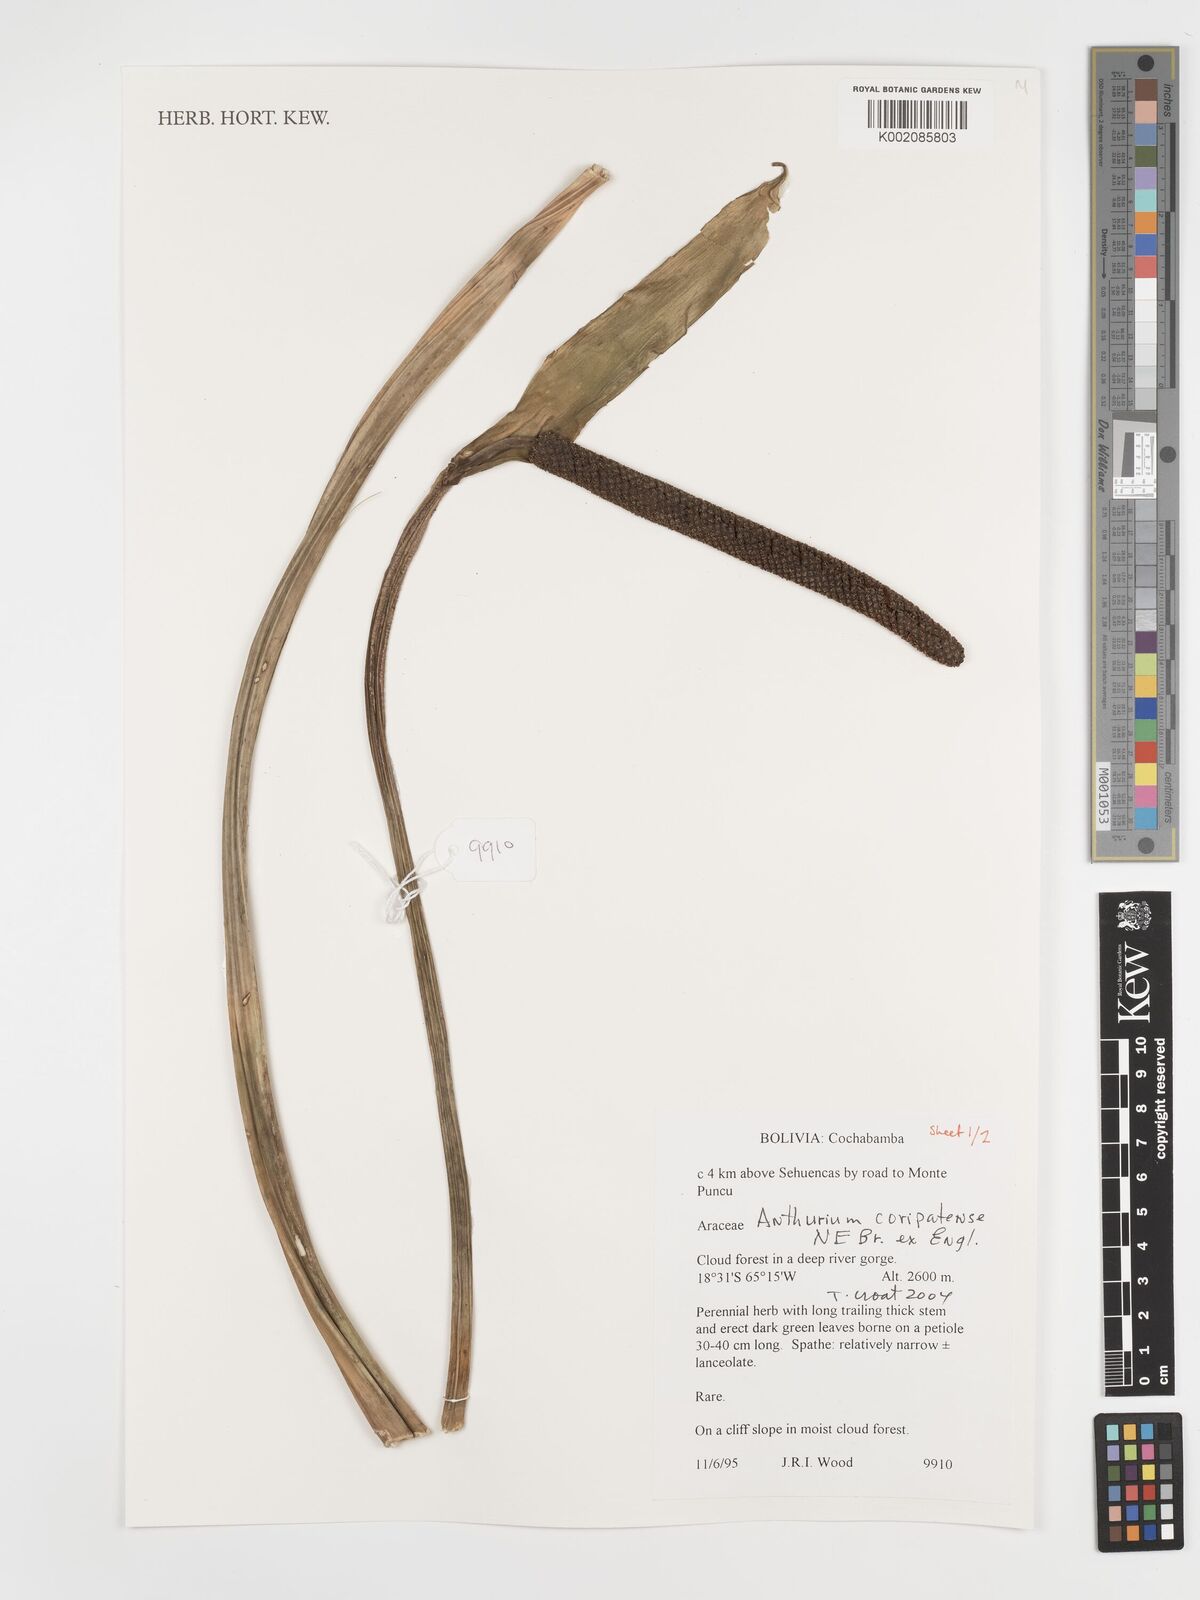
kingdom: Plantae
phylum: Tracheophyta
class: Liliopsida
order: Alismatales
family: Araceae
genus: Anthurium
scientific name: Anthurium coripatense
